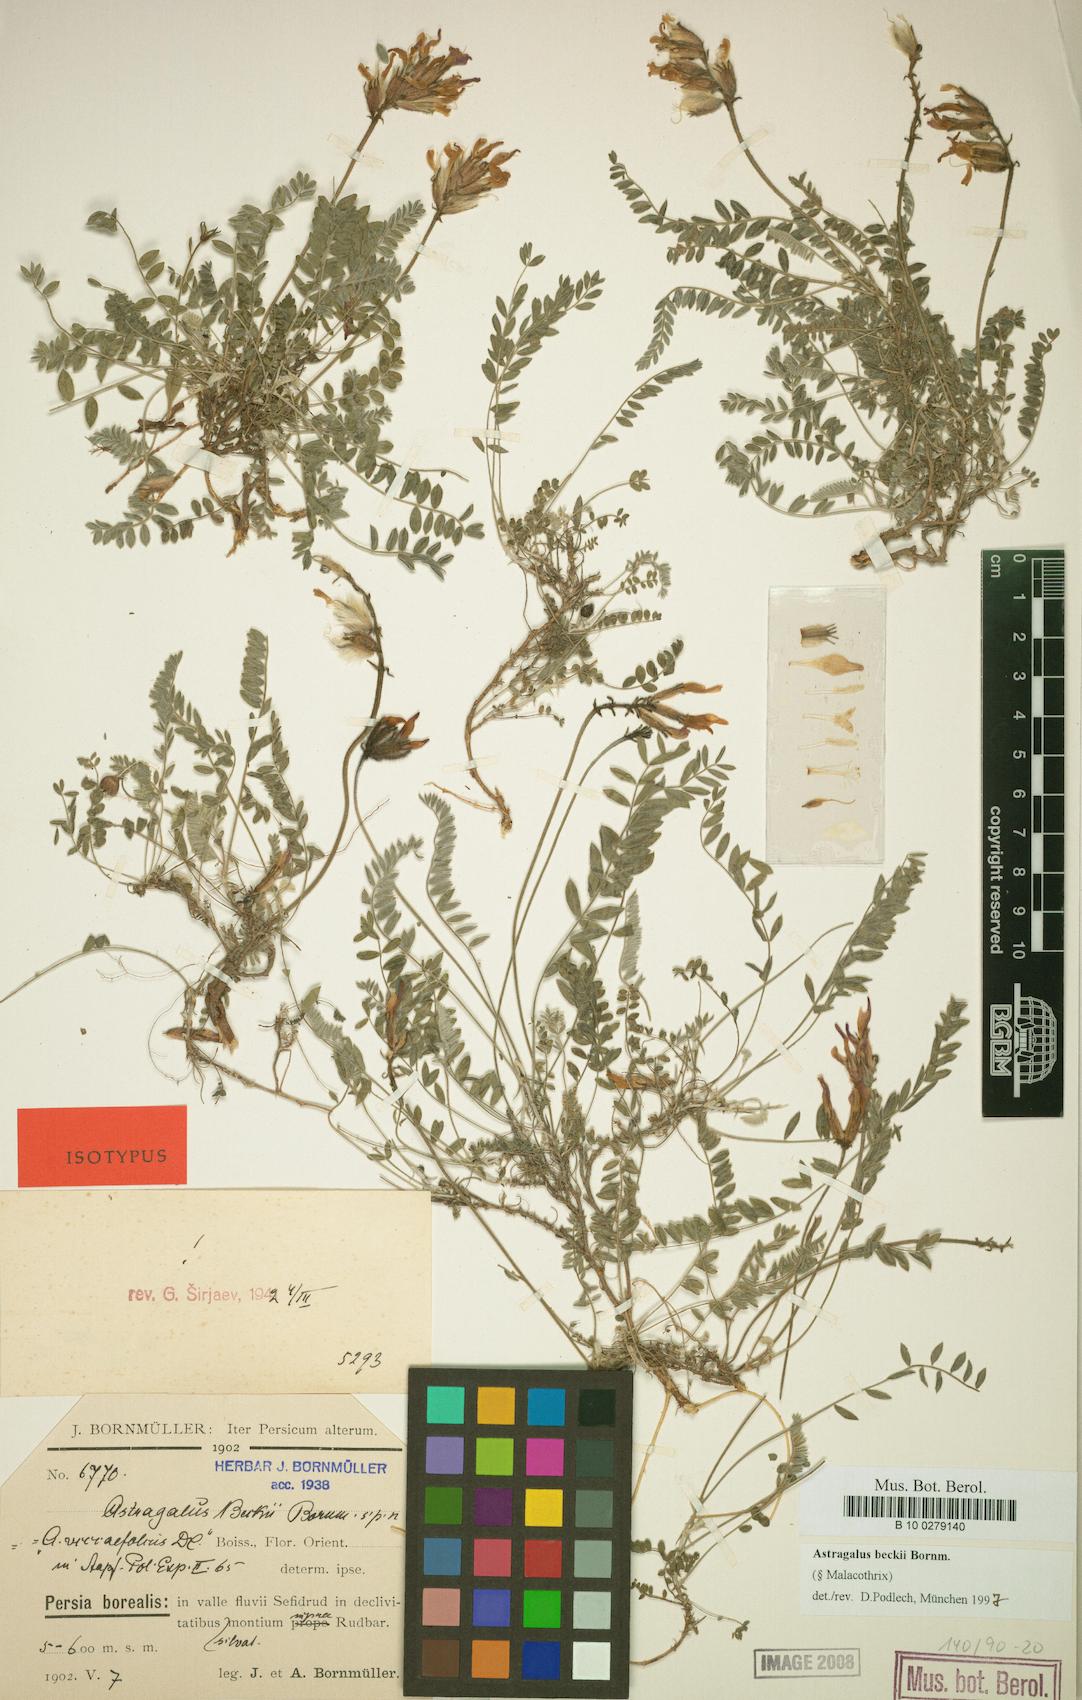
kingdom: Plantae
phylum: Tracheophyta
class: Magnoliopsida
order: Fabales
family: Fabaceae
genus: Astragalus
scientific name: Astragalus beckii
